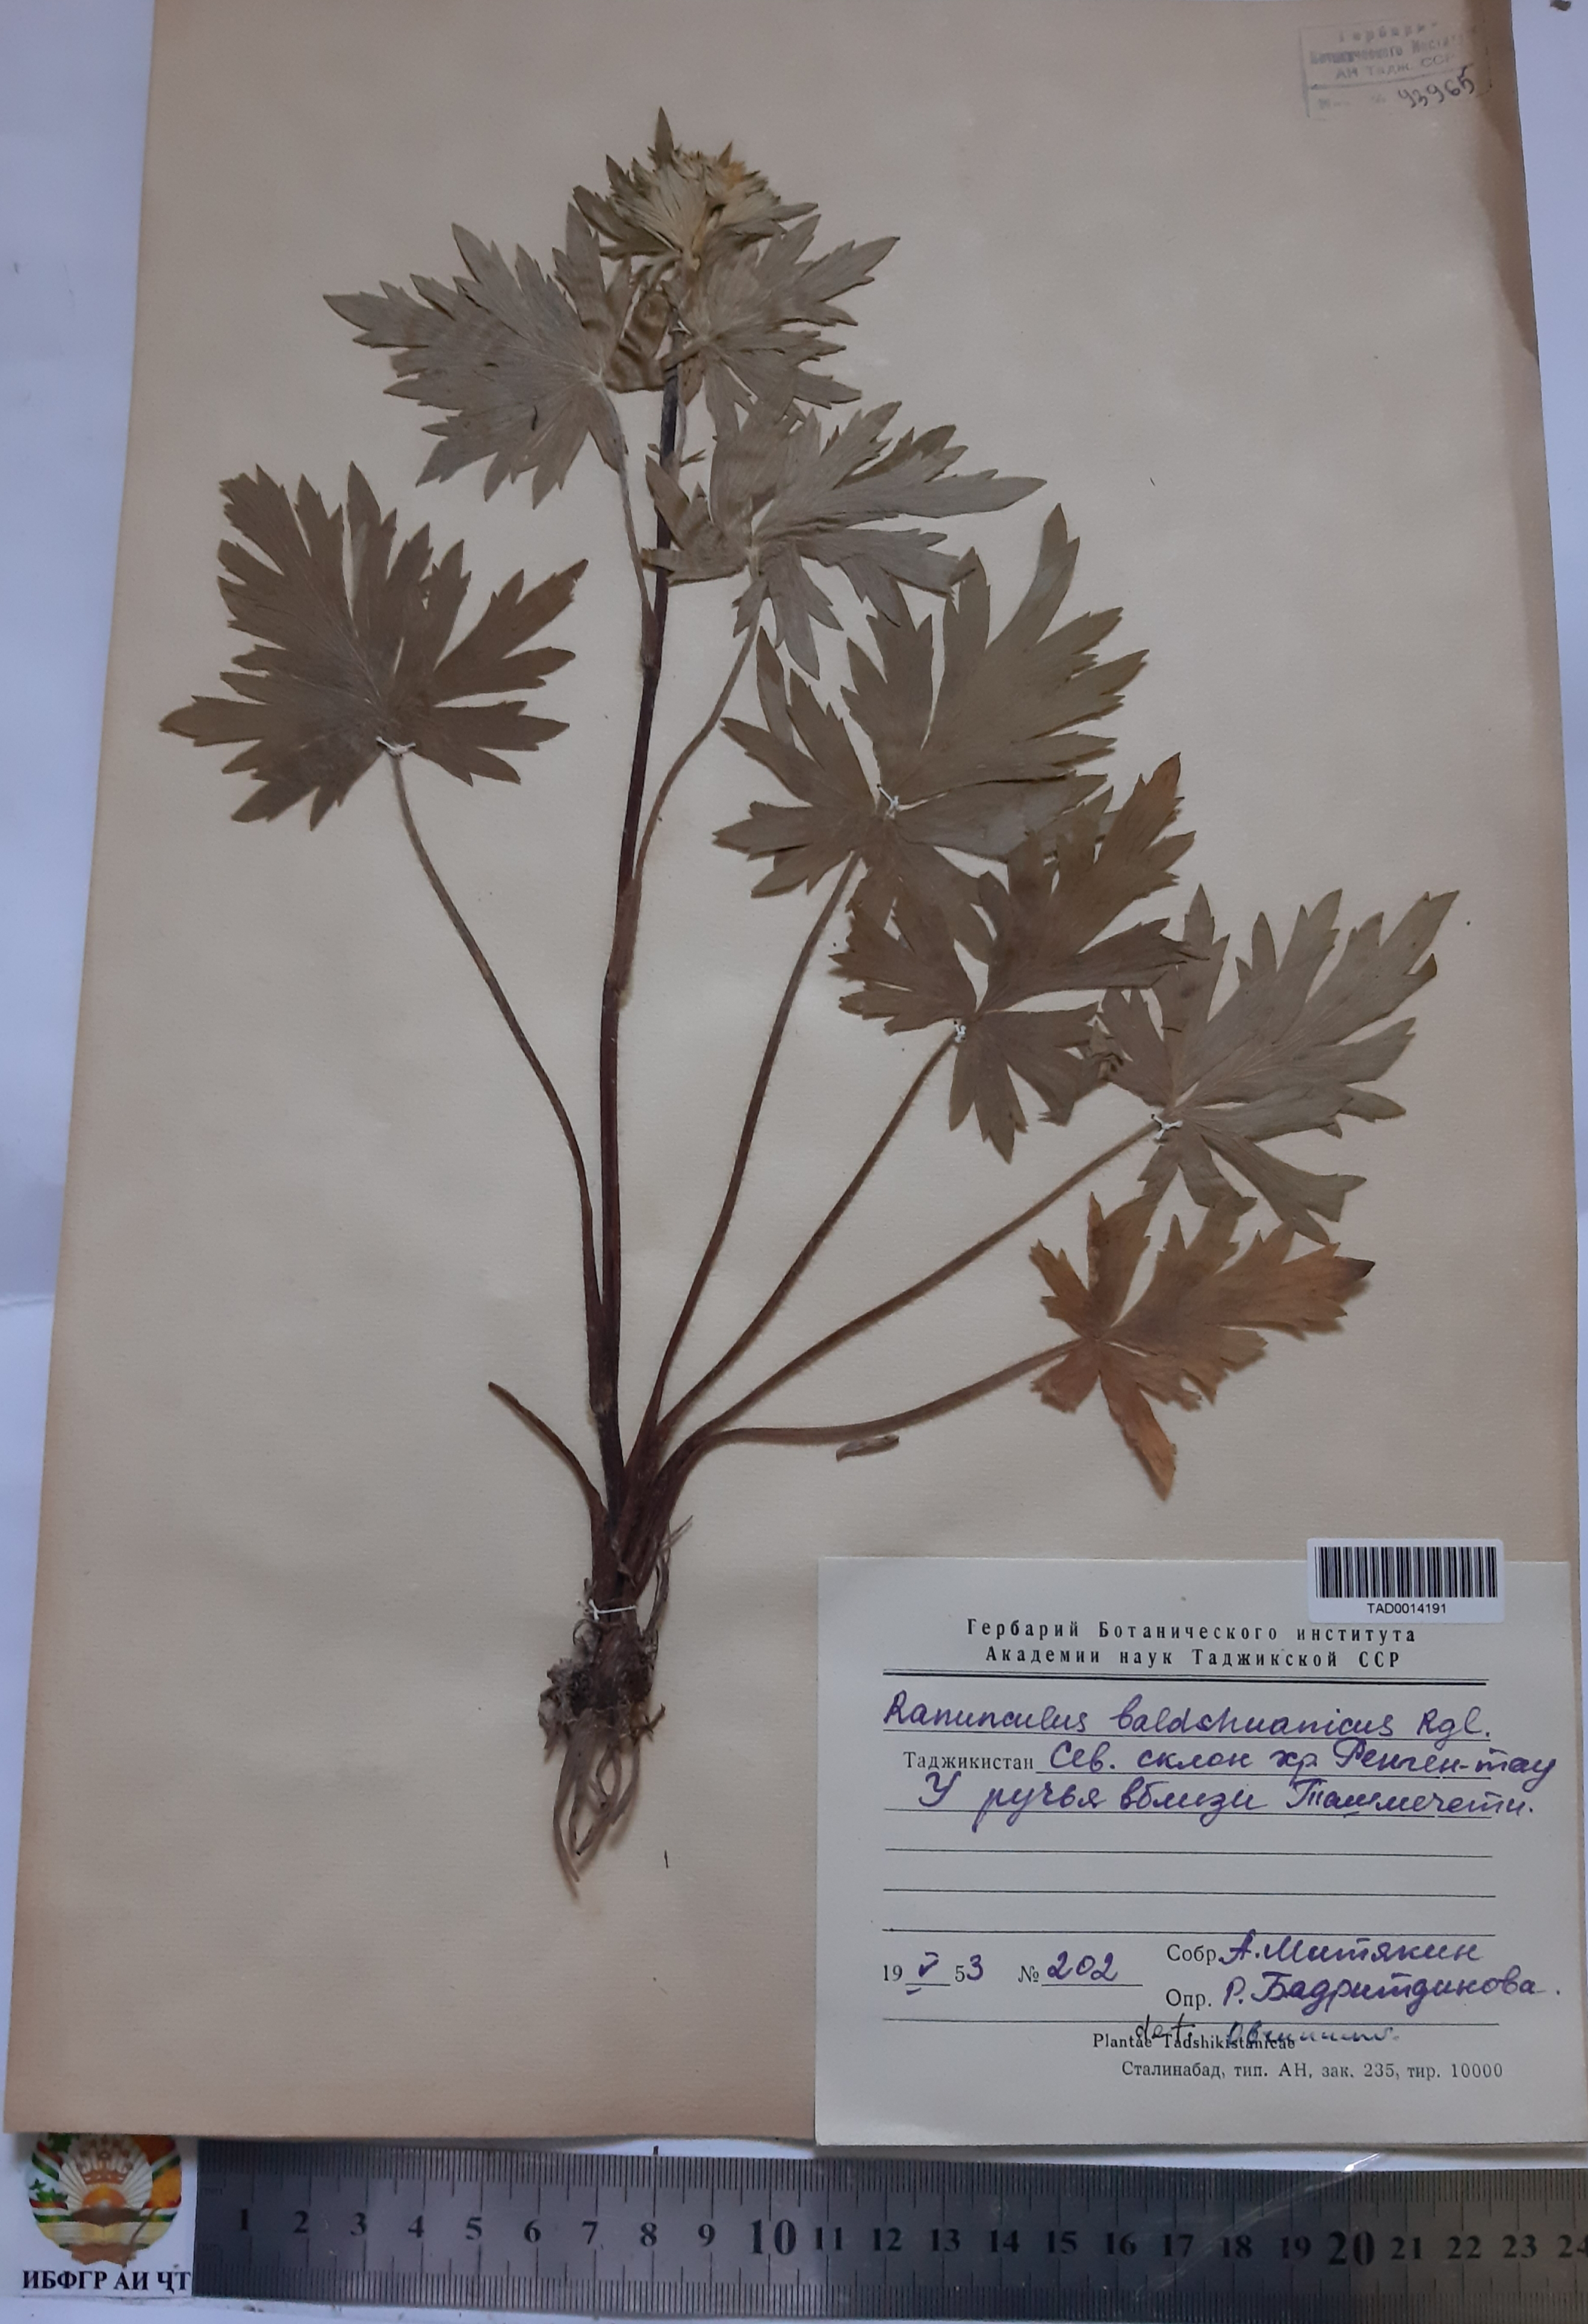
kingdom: Plantae
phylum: Tracheophyta
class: Magnoliopsida
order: Ranunculales
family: Ranunculaceae
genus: Ranunculus
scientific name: Ranunculus baldshuanicus
